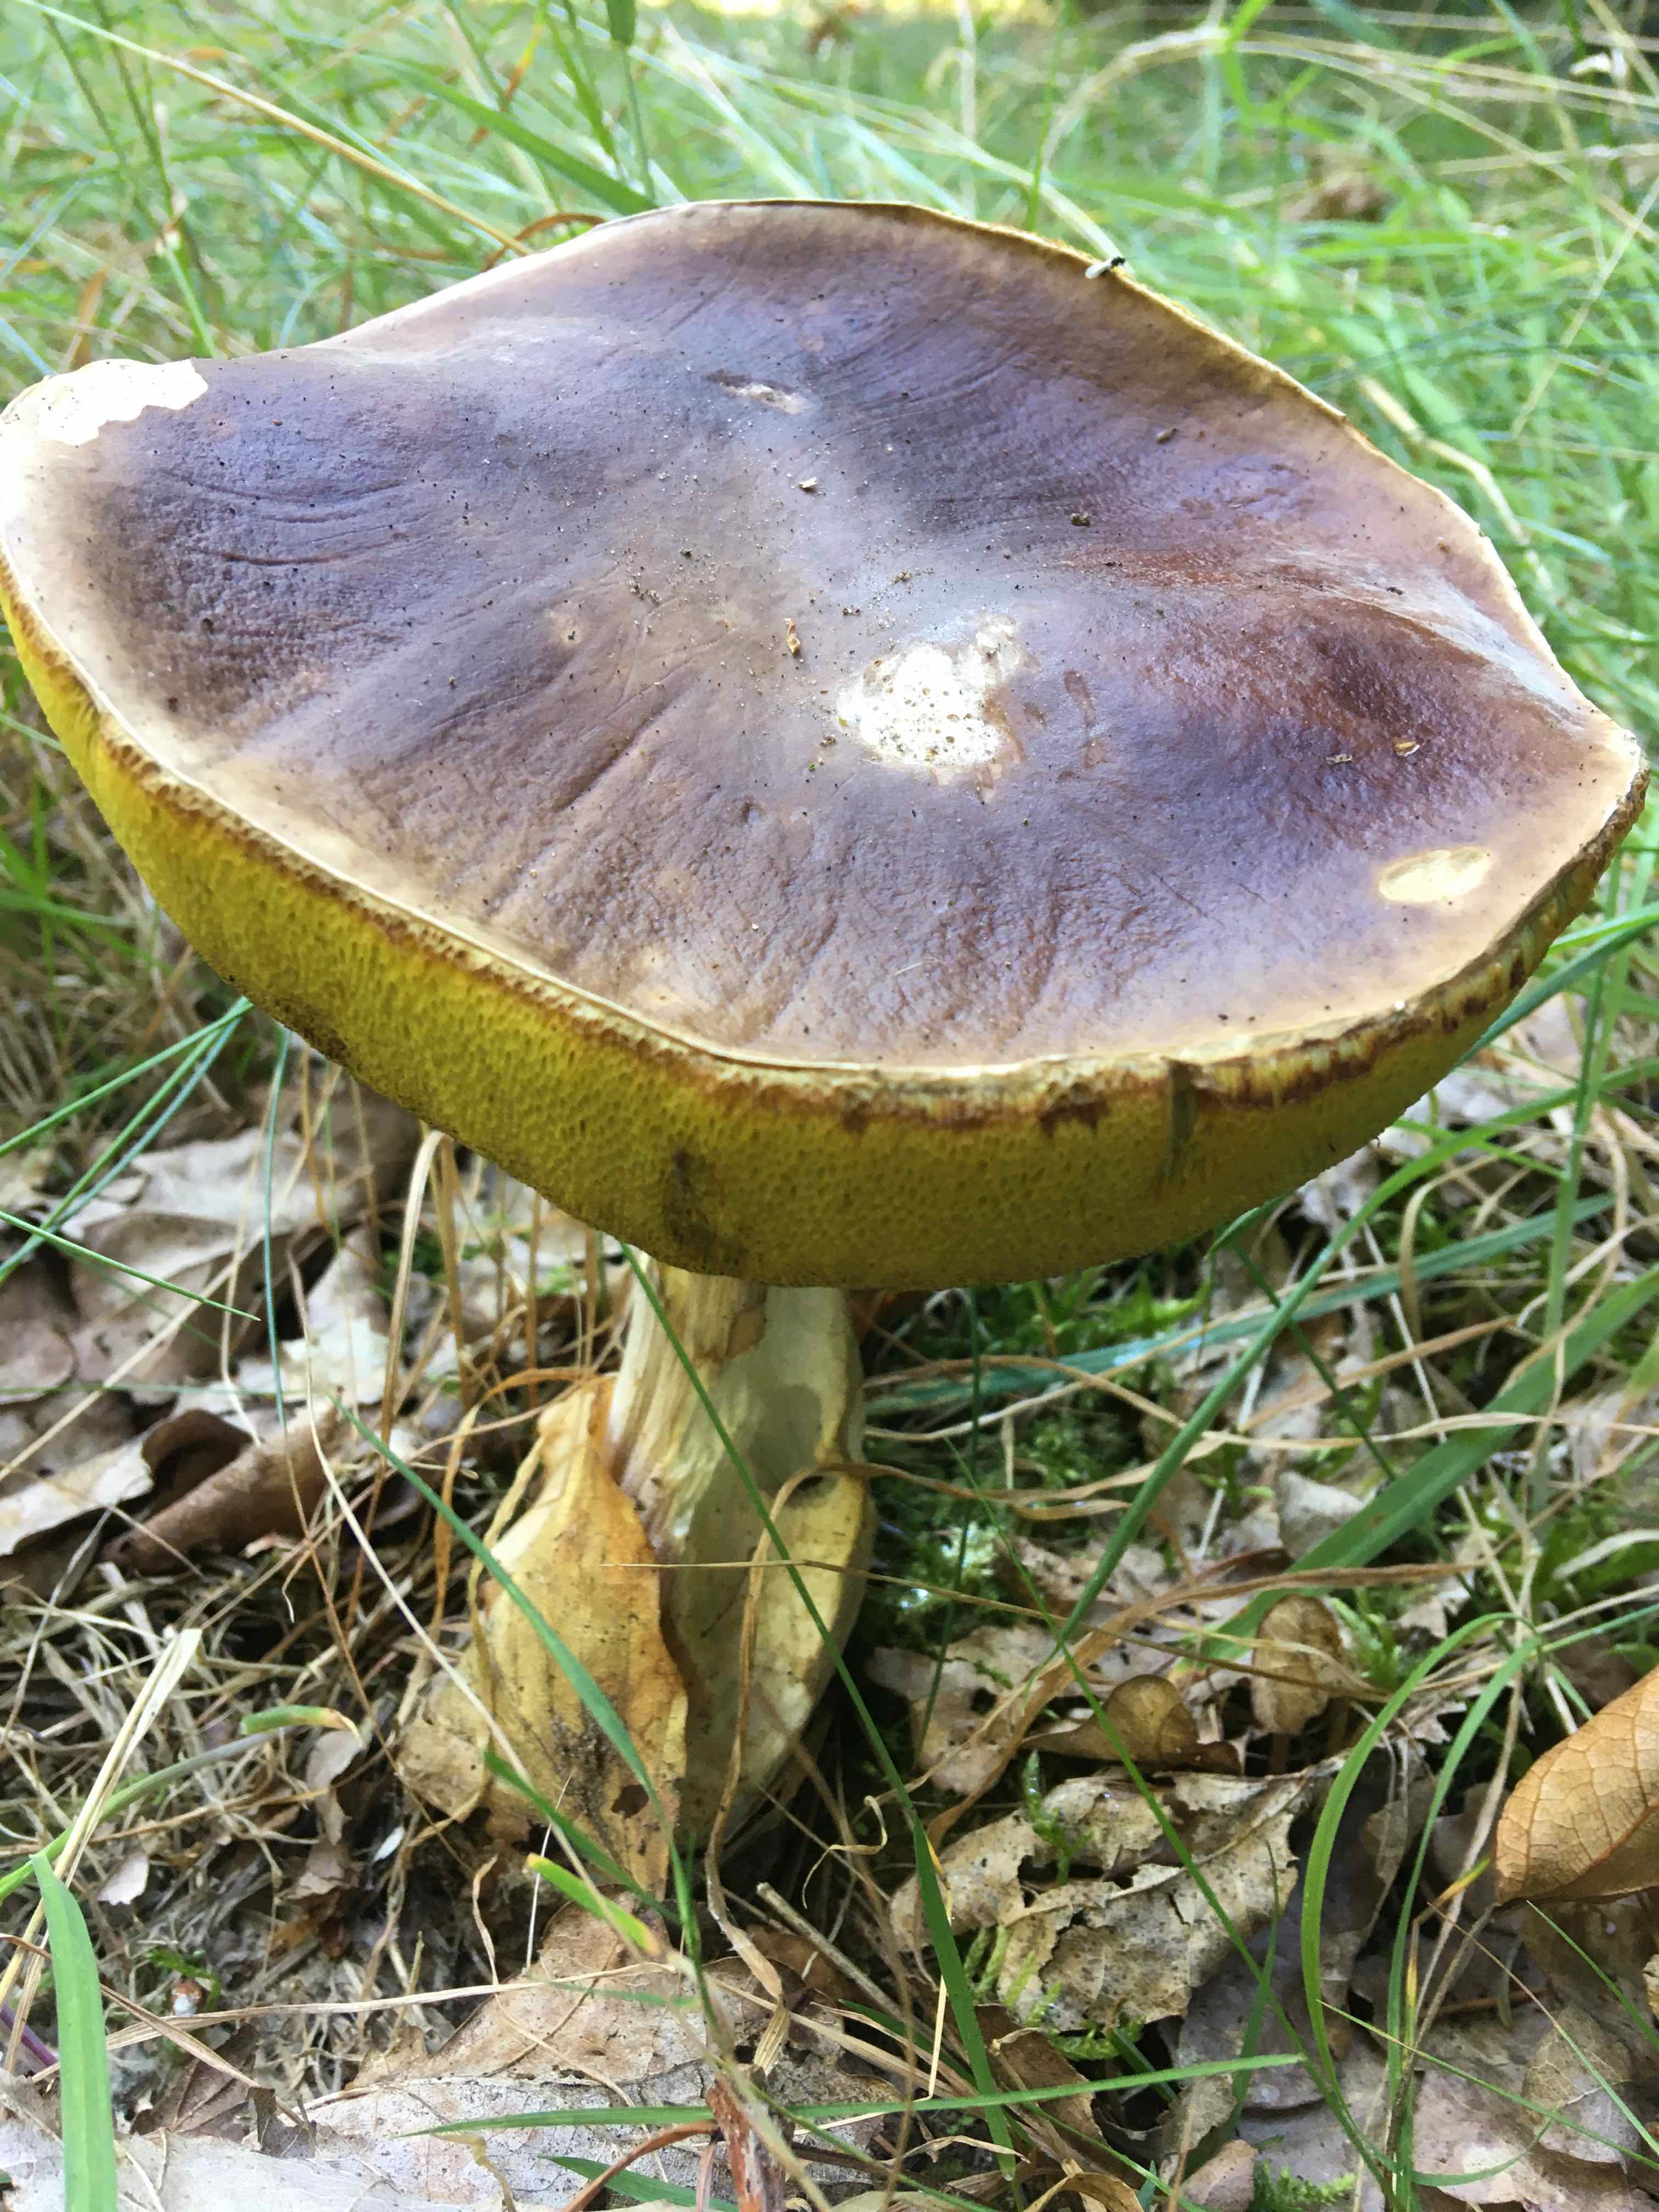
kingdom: Fungi
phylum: Basidiomycota
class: Agaricomycetes
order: Boletales
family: Boletaceae
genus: Boletus
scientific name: Boletus edulis
